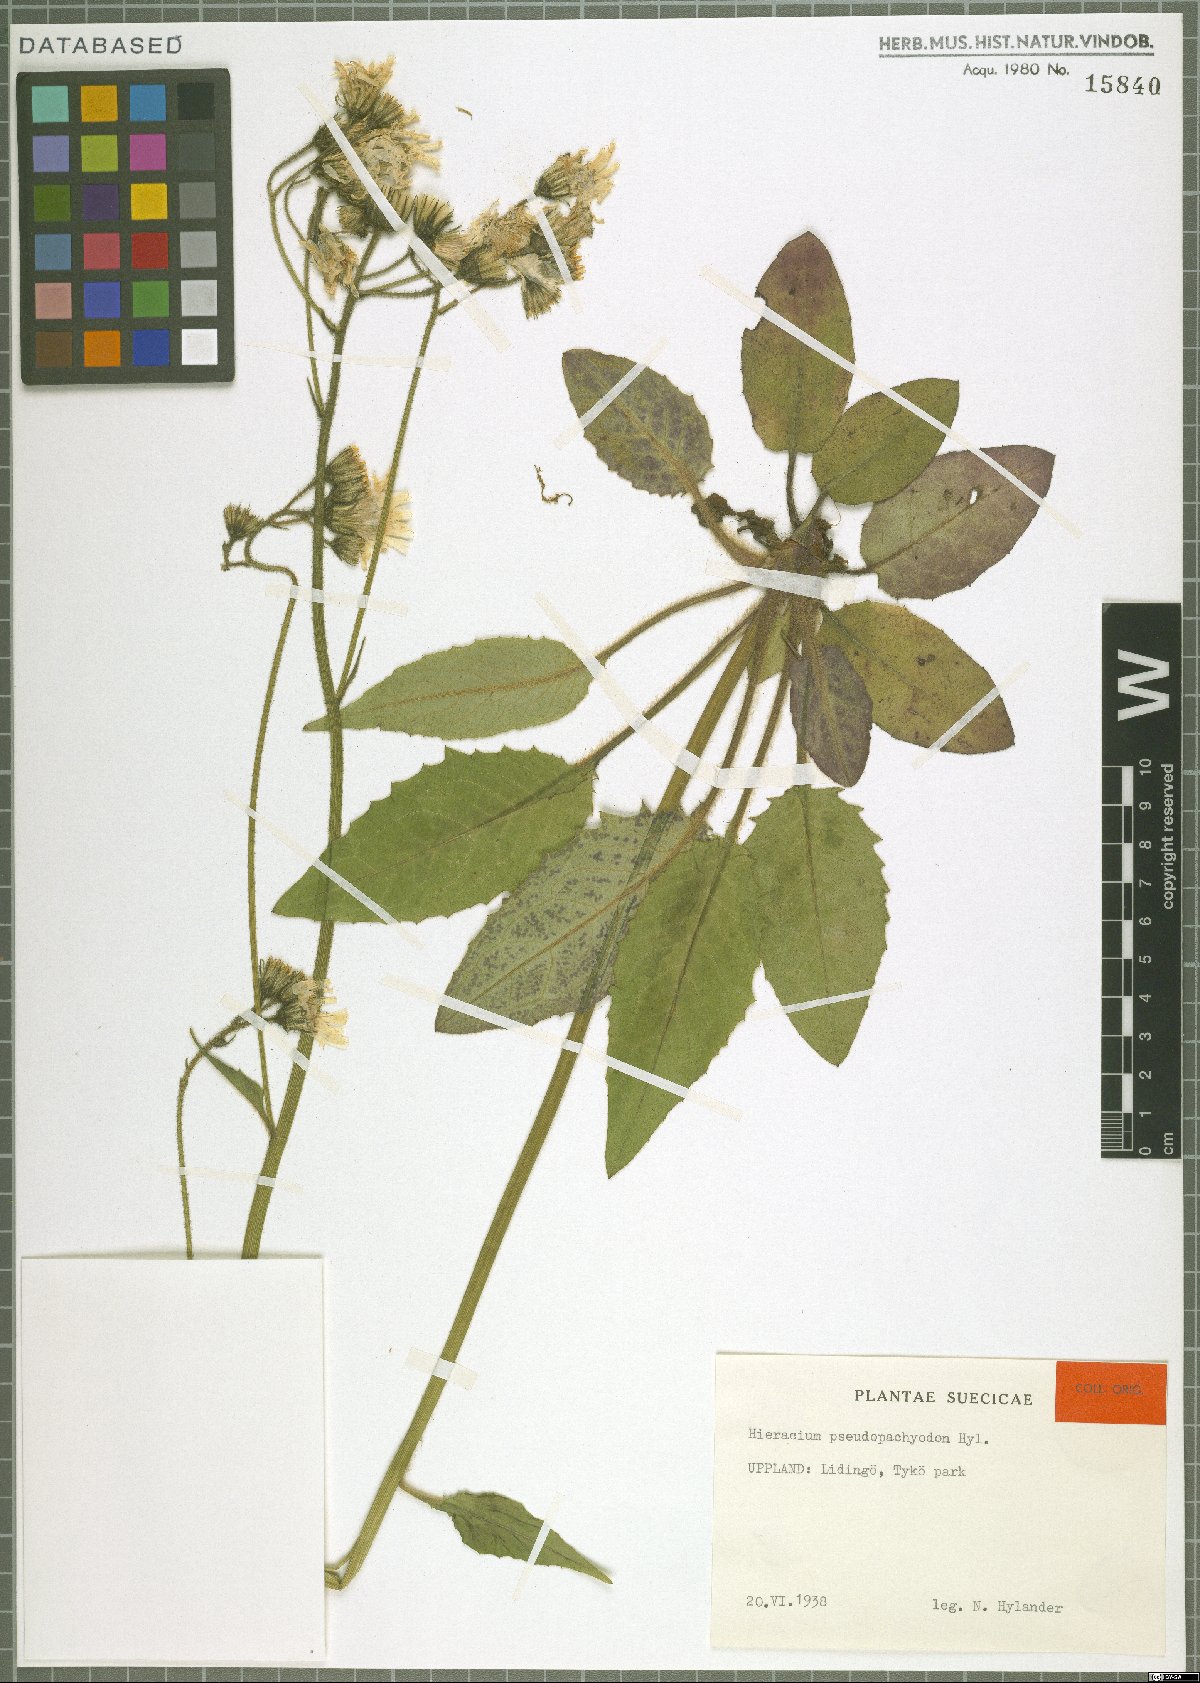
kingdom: Plantae
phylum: Tracheophyta
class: Magnoliopsida
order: Asterales
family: Asteraceae
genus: Hieracium
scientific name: Hieracium pseudopachyodon
